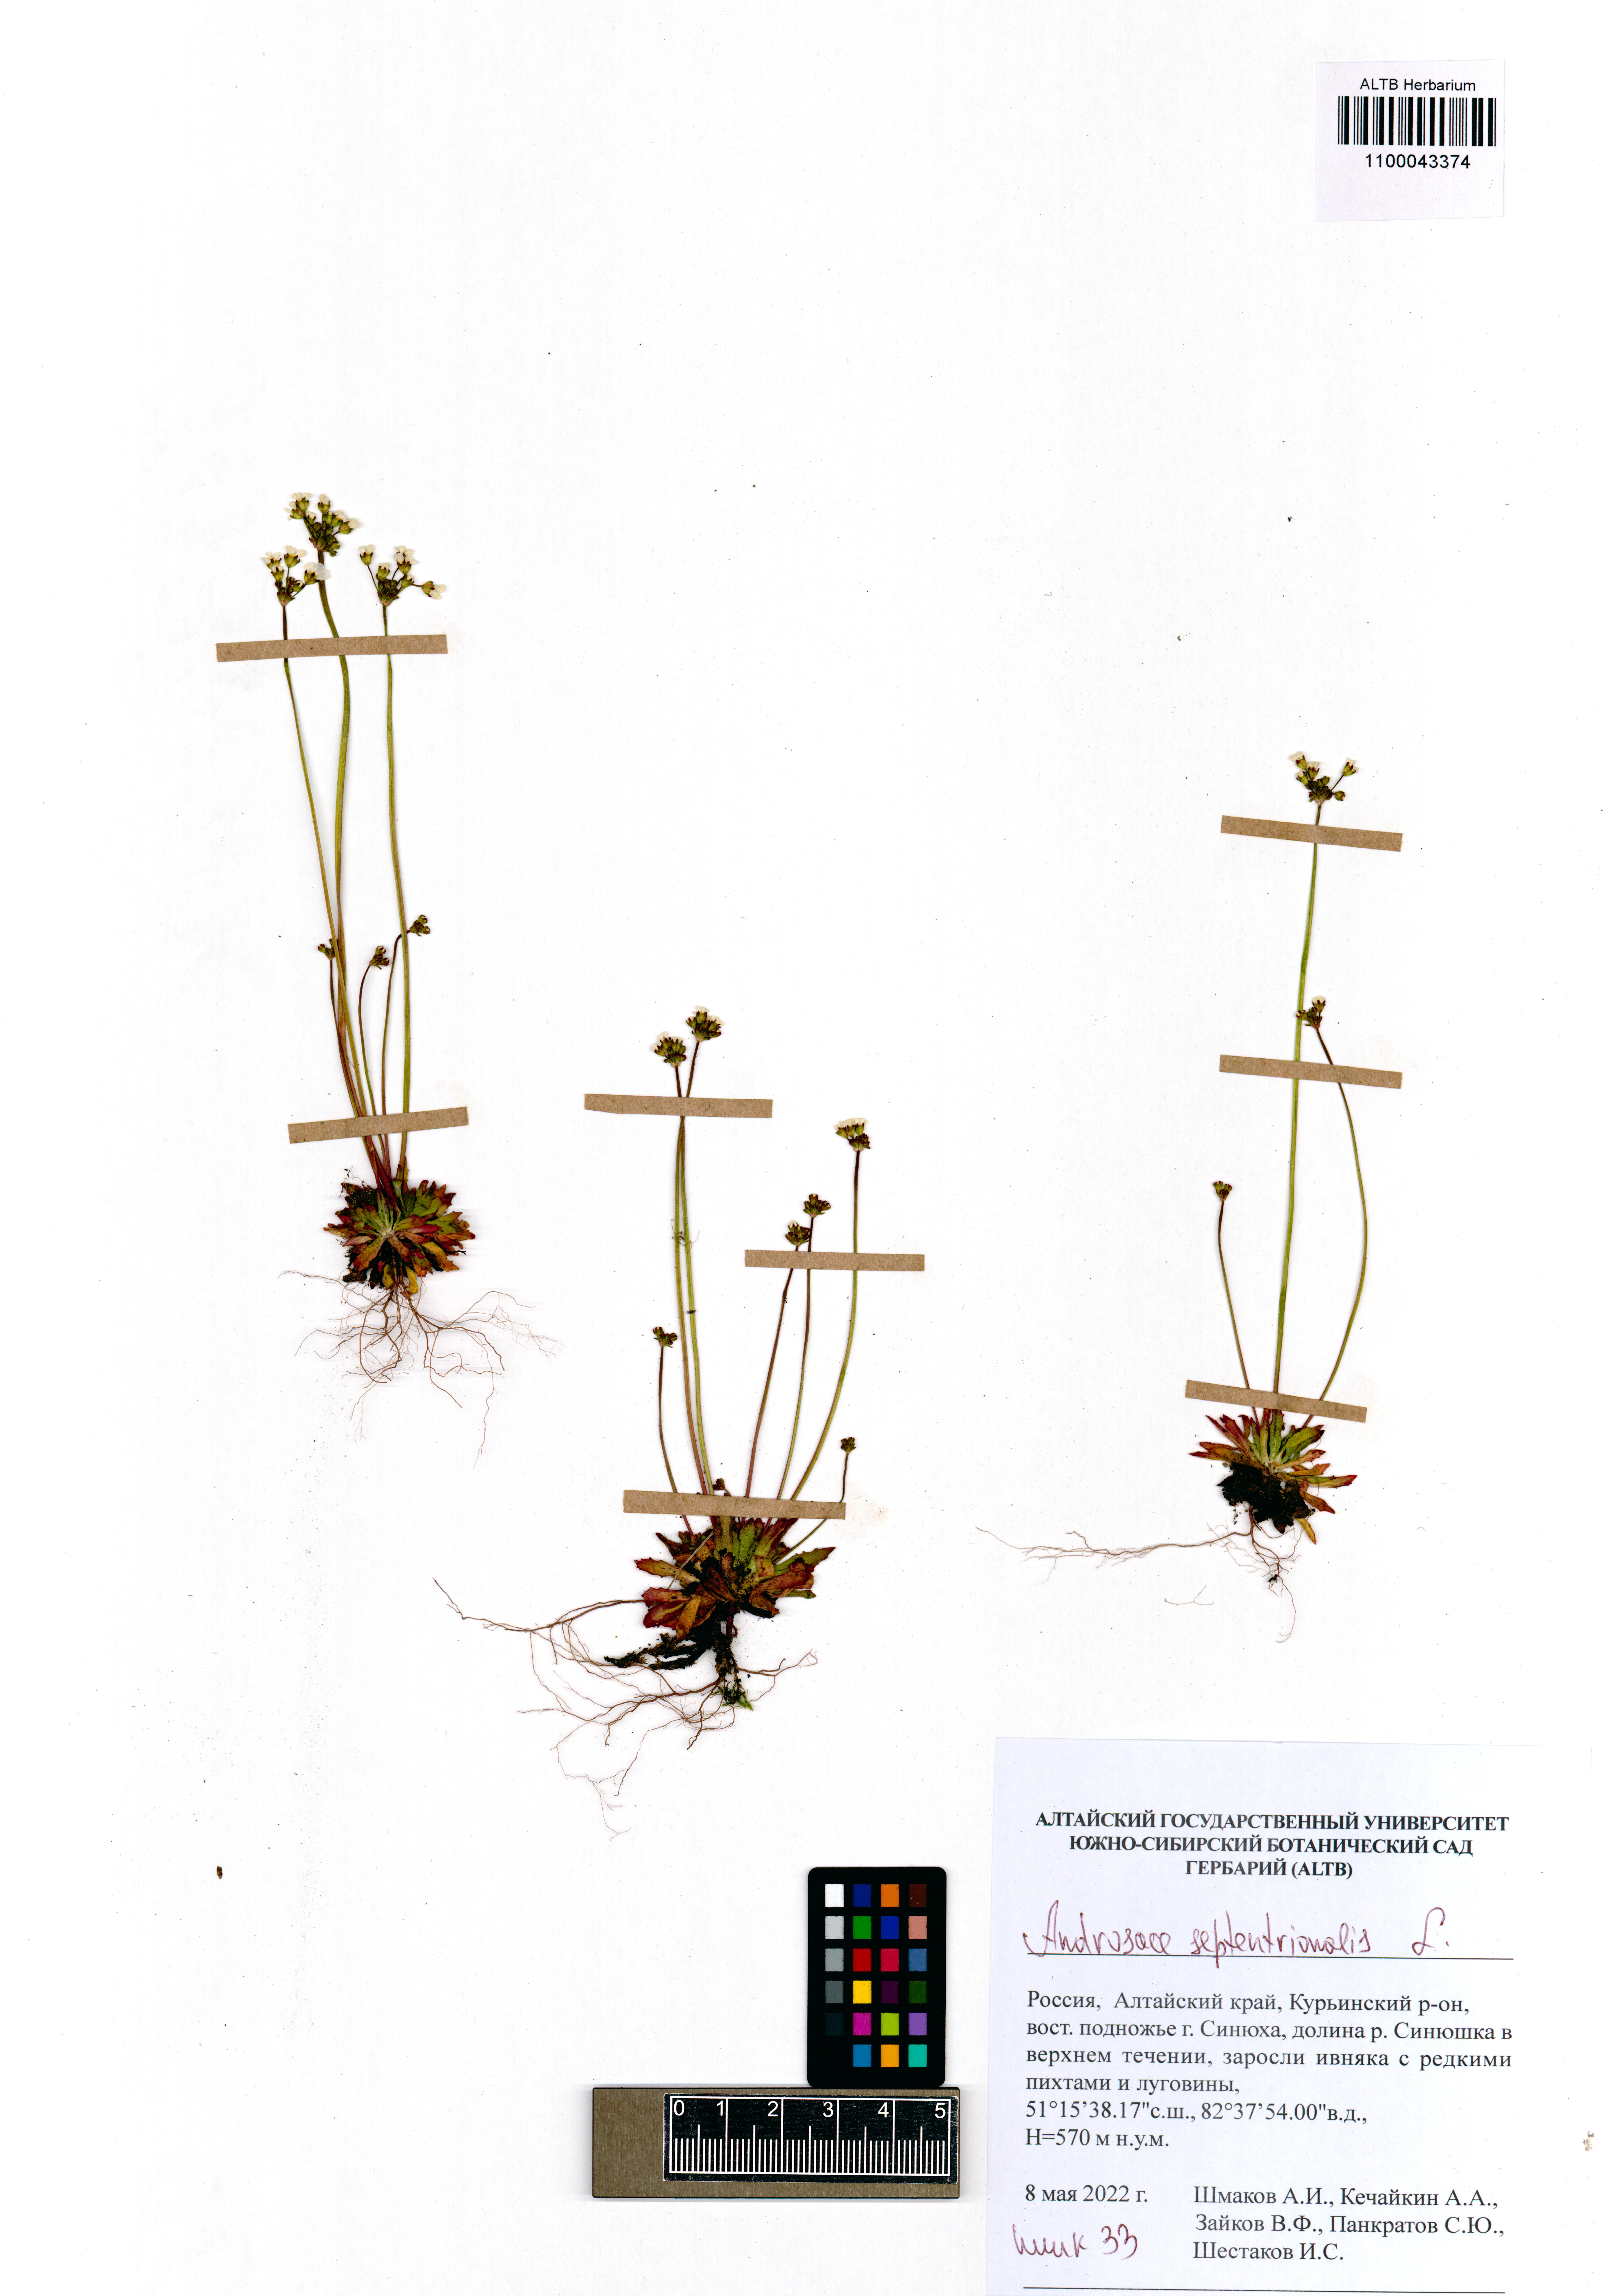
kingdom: Plantae
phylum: Tracheophyta
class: Magnoliopsida
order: Ericales
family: Primulaceae
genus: Androsace
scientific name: Androsace septentrionalis
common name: Hairy northern fairy-candelabra
